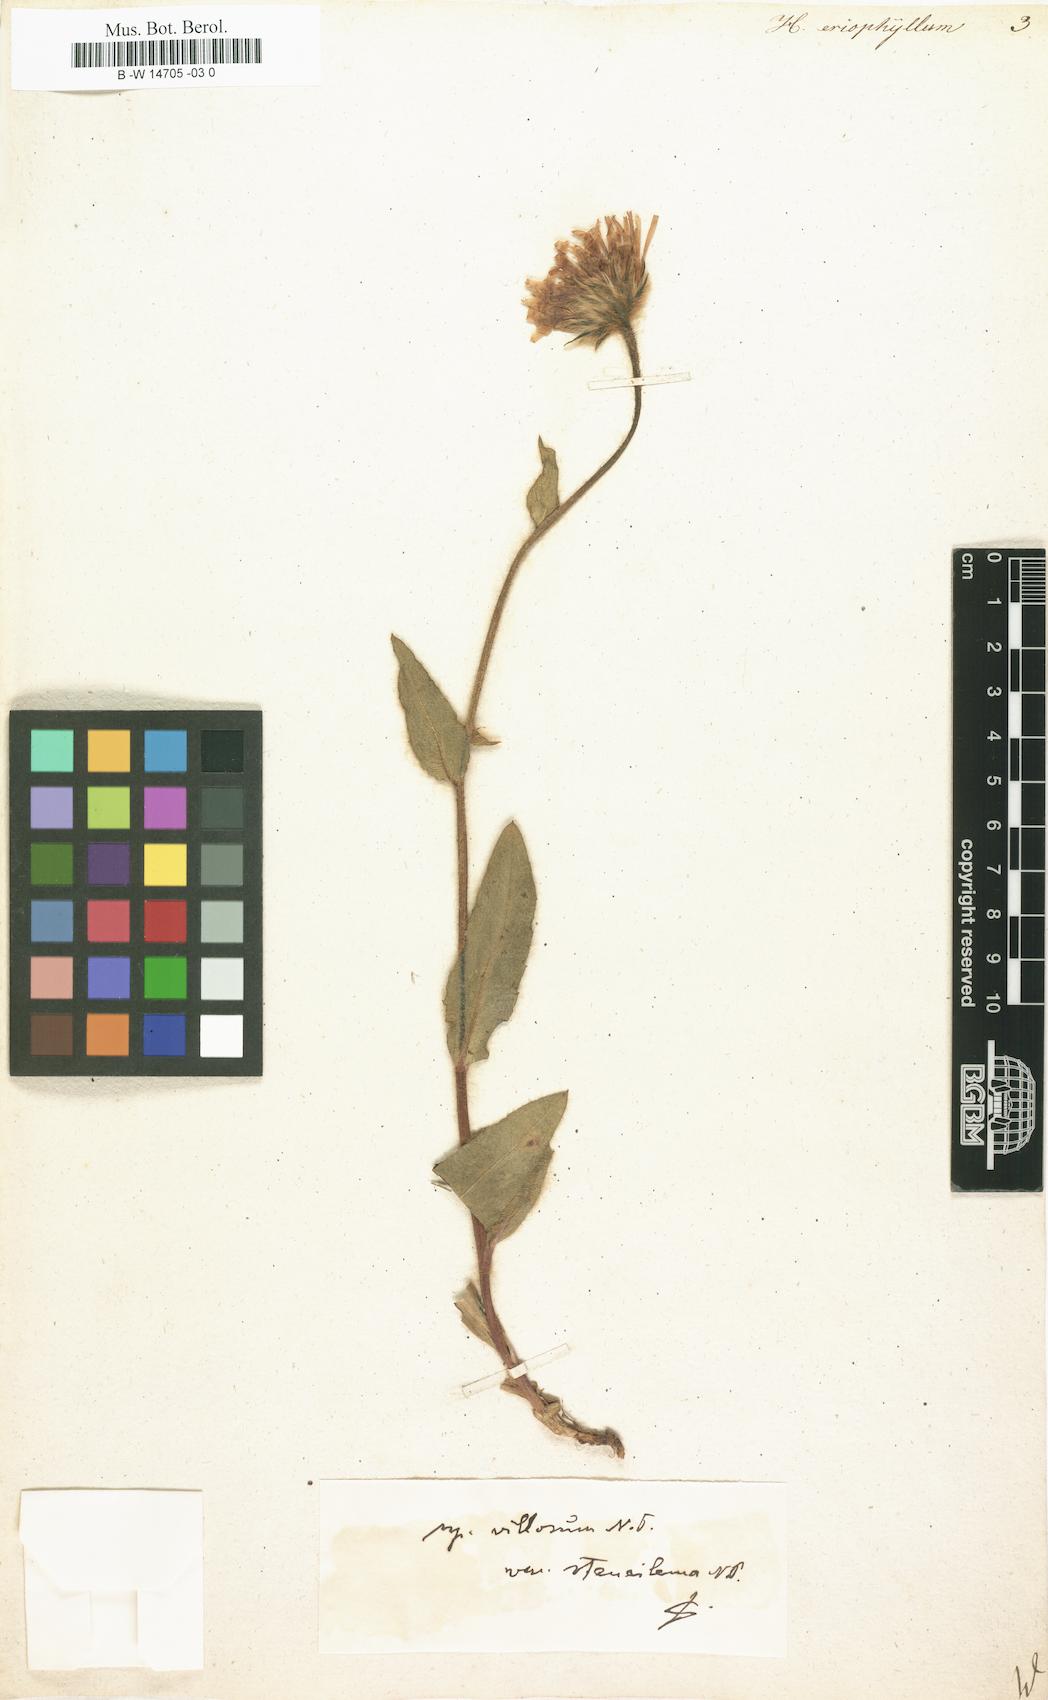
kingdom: Plantae
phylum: Tracheophyta
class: Magnoliopsida
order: Asterales
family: Asteraceae
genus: Hieracium
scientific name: Hieracium villosum
